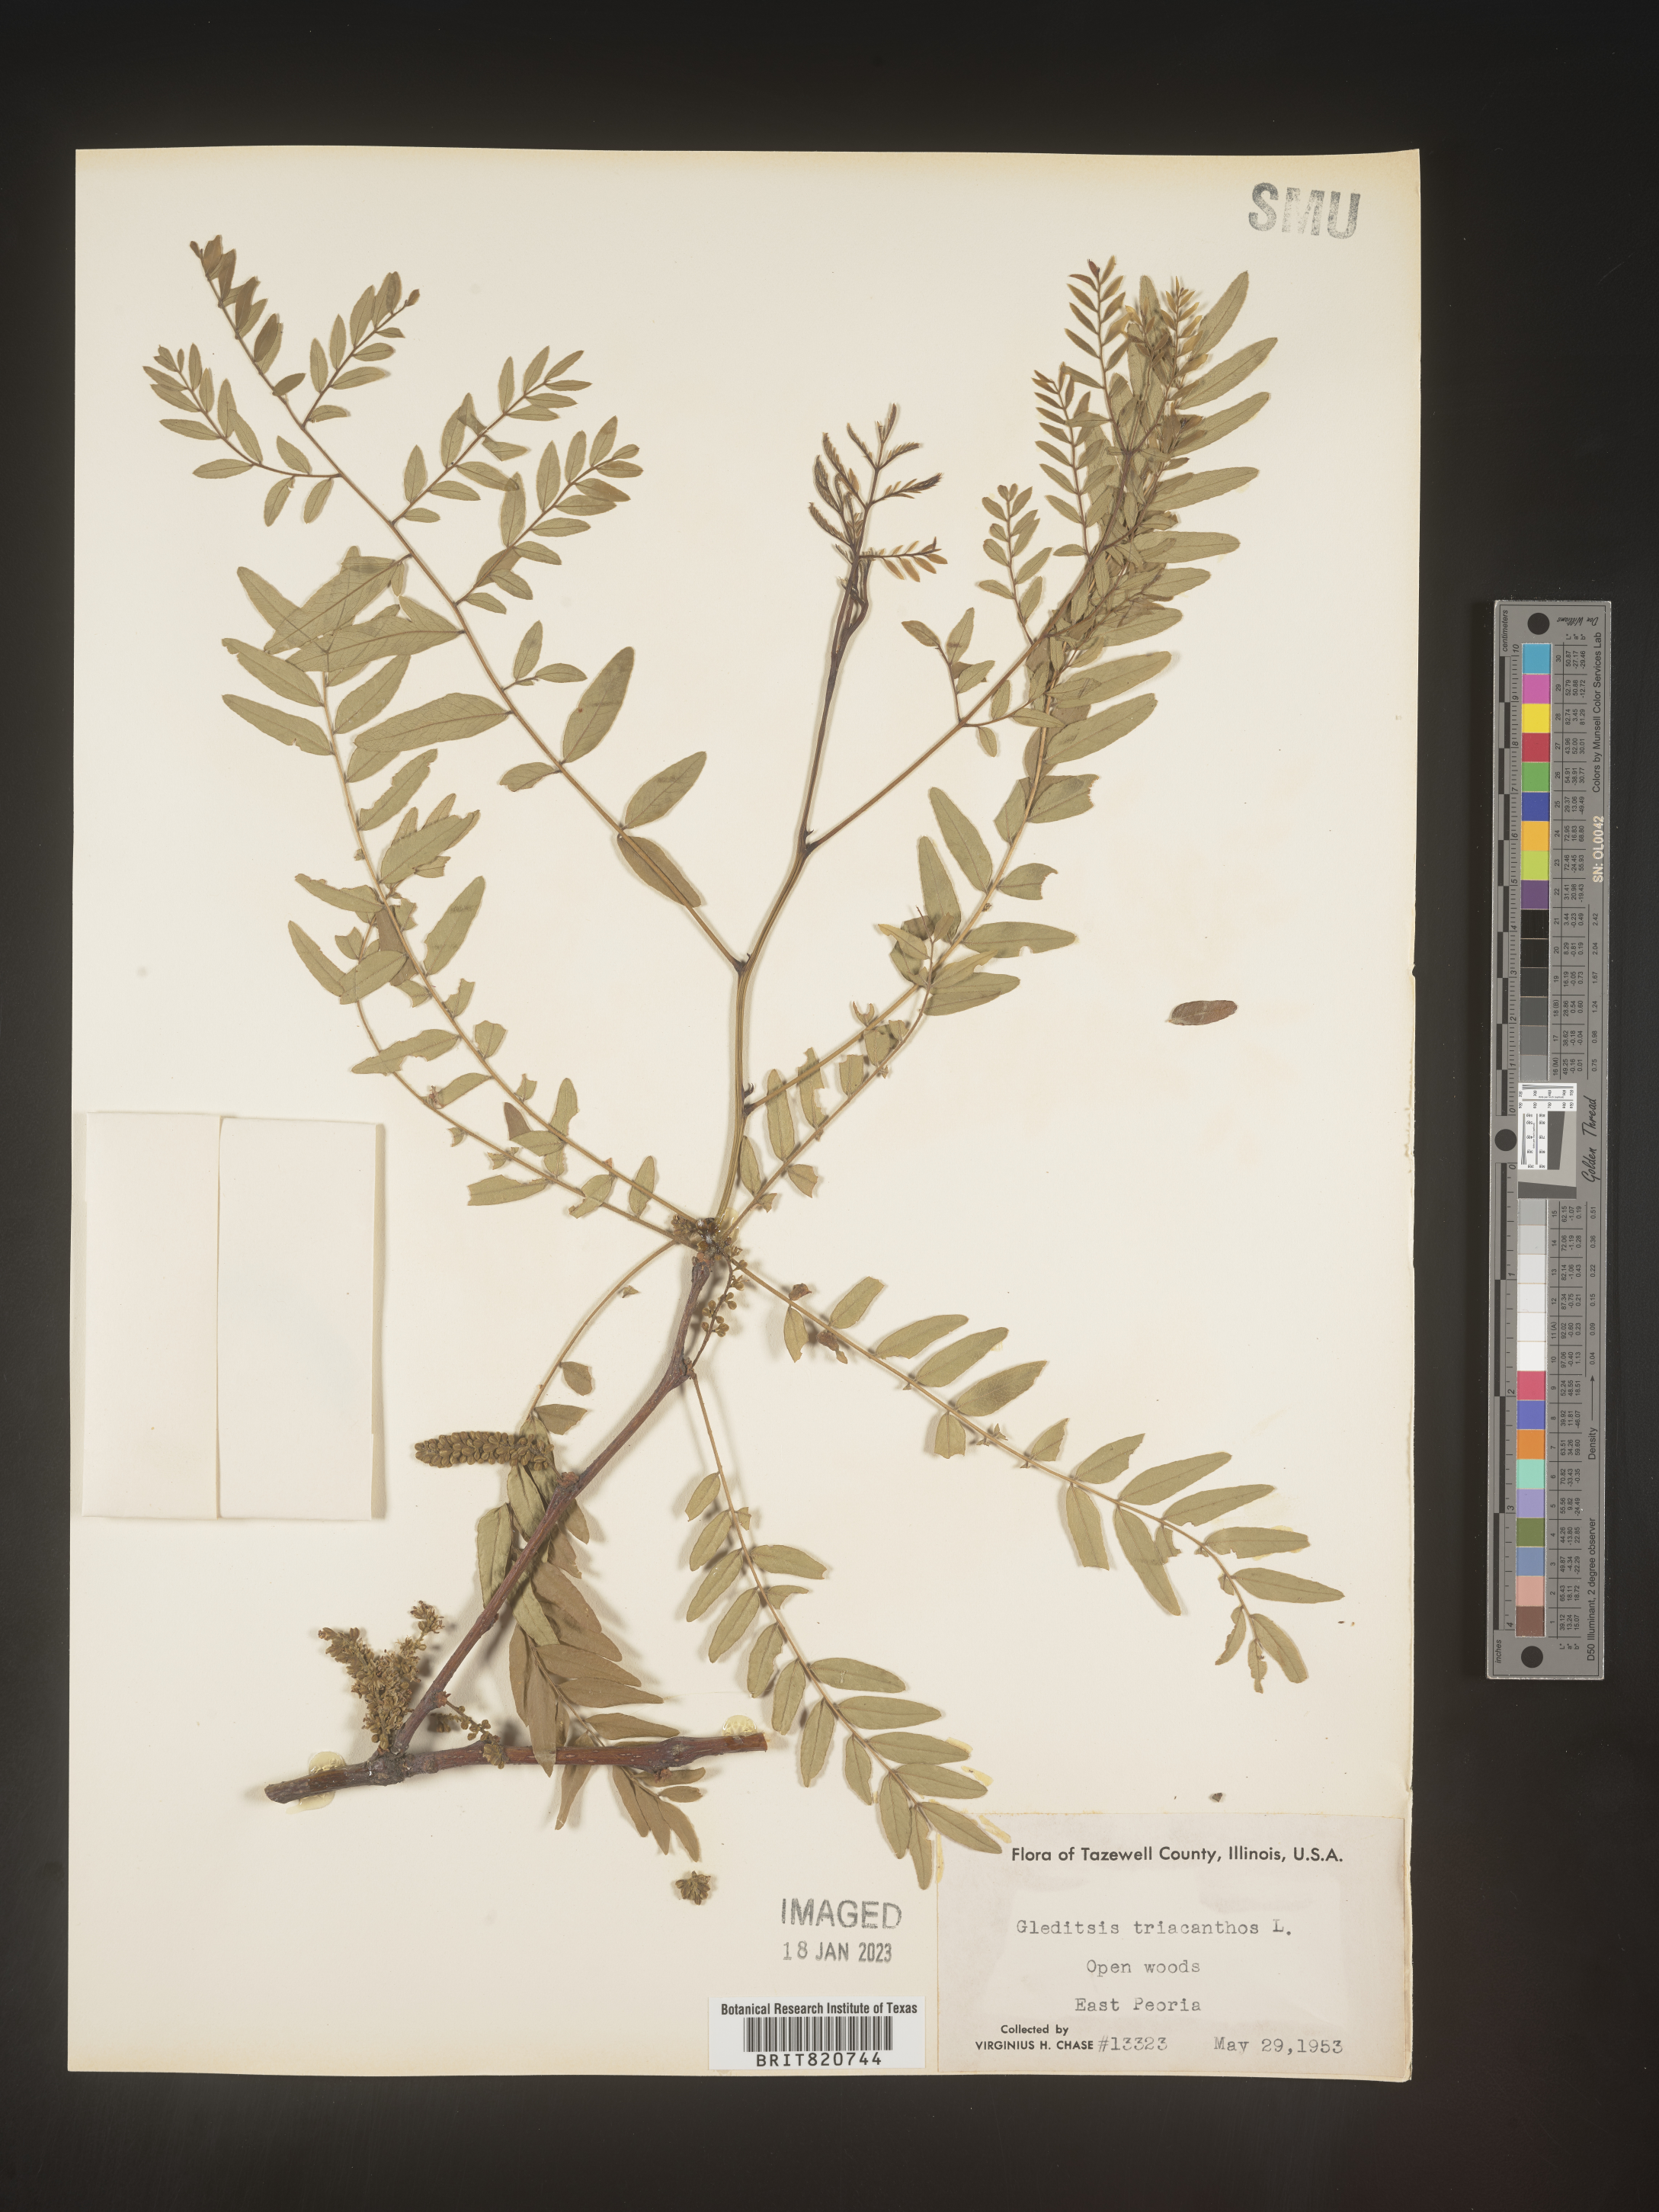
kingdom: Plantae
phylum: Tracheophyta
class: Magnoliopsida
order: Fabales
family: Fabaceae
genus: Gleditsia
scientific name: Gleditsia triacanthos
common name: Common honeylocust
